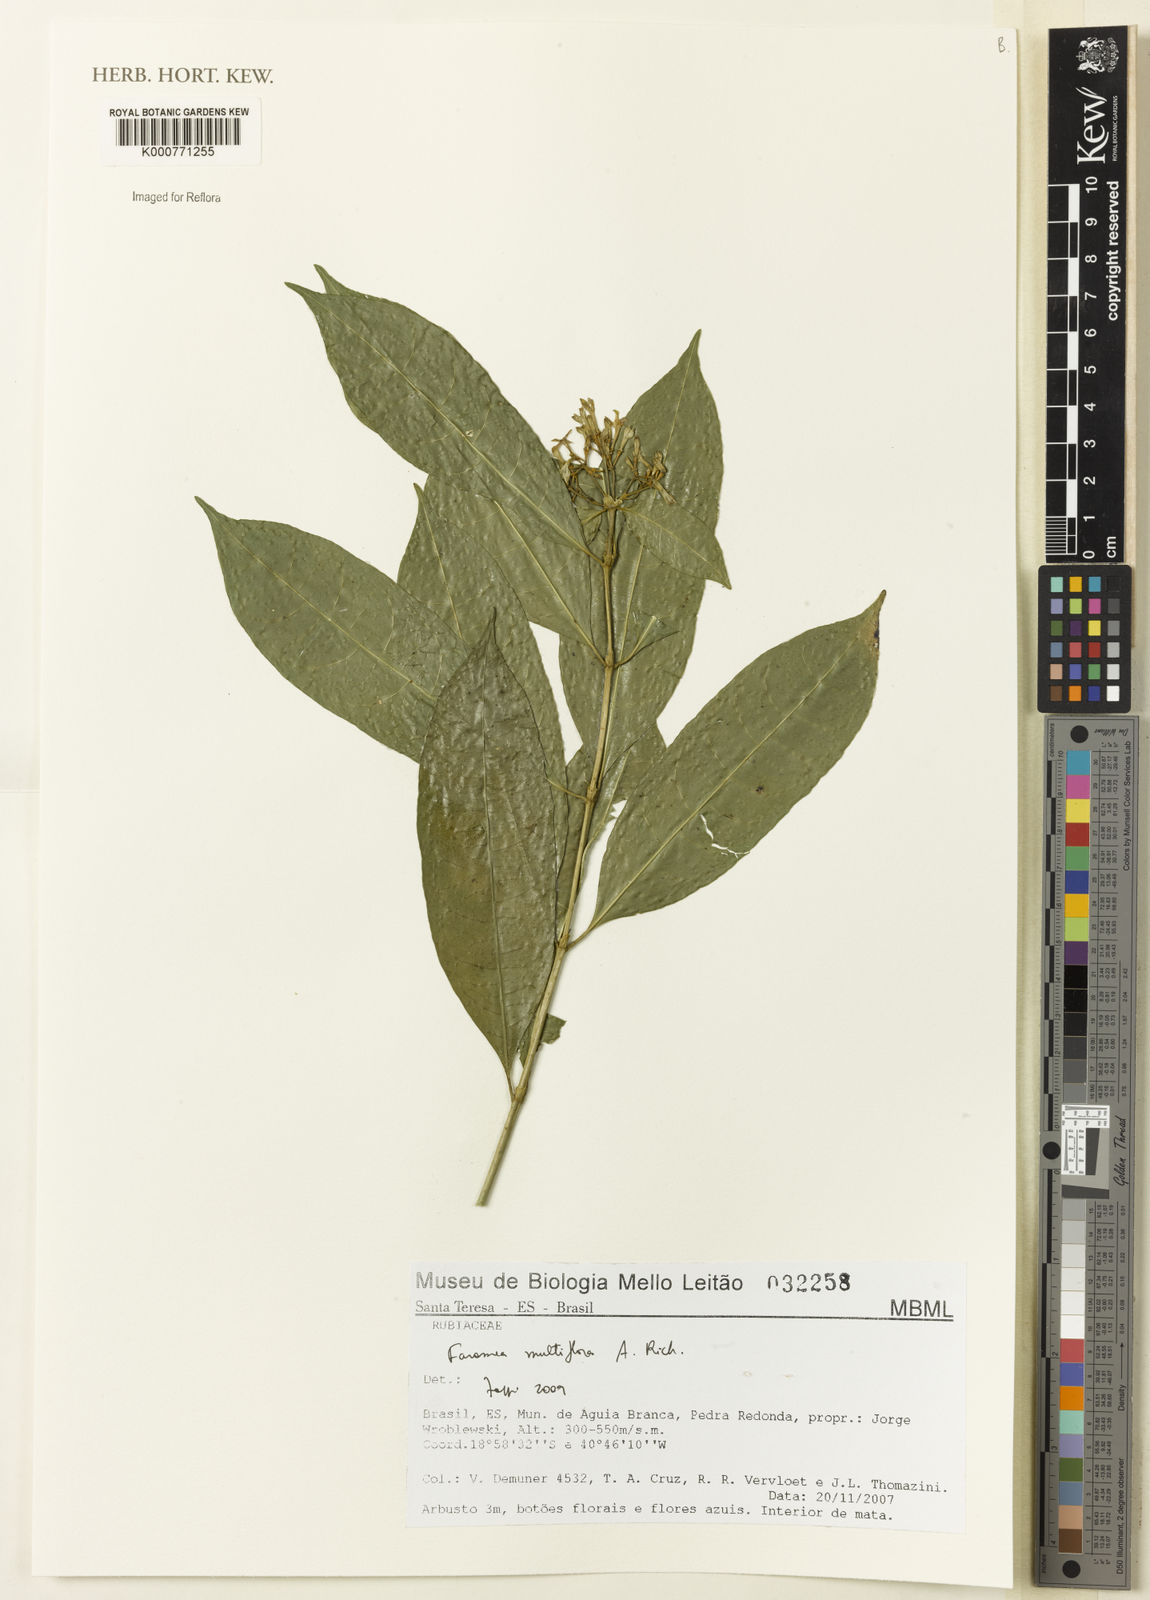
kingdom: Plantae
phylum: Tracheophyta
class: Magnoliopsida
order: Gentianales
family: Rubiaceae
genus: Faramea
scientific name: Faramea multiflora
